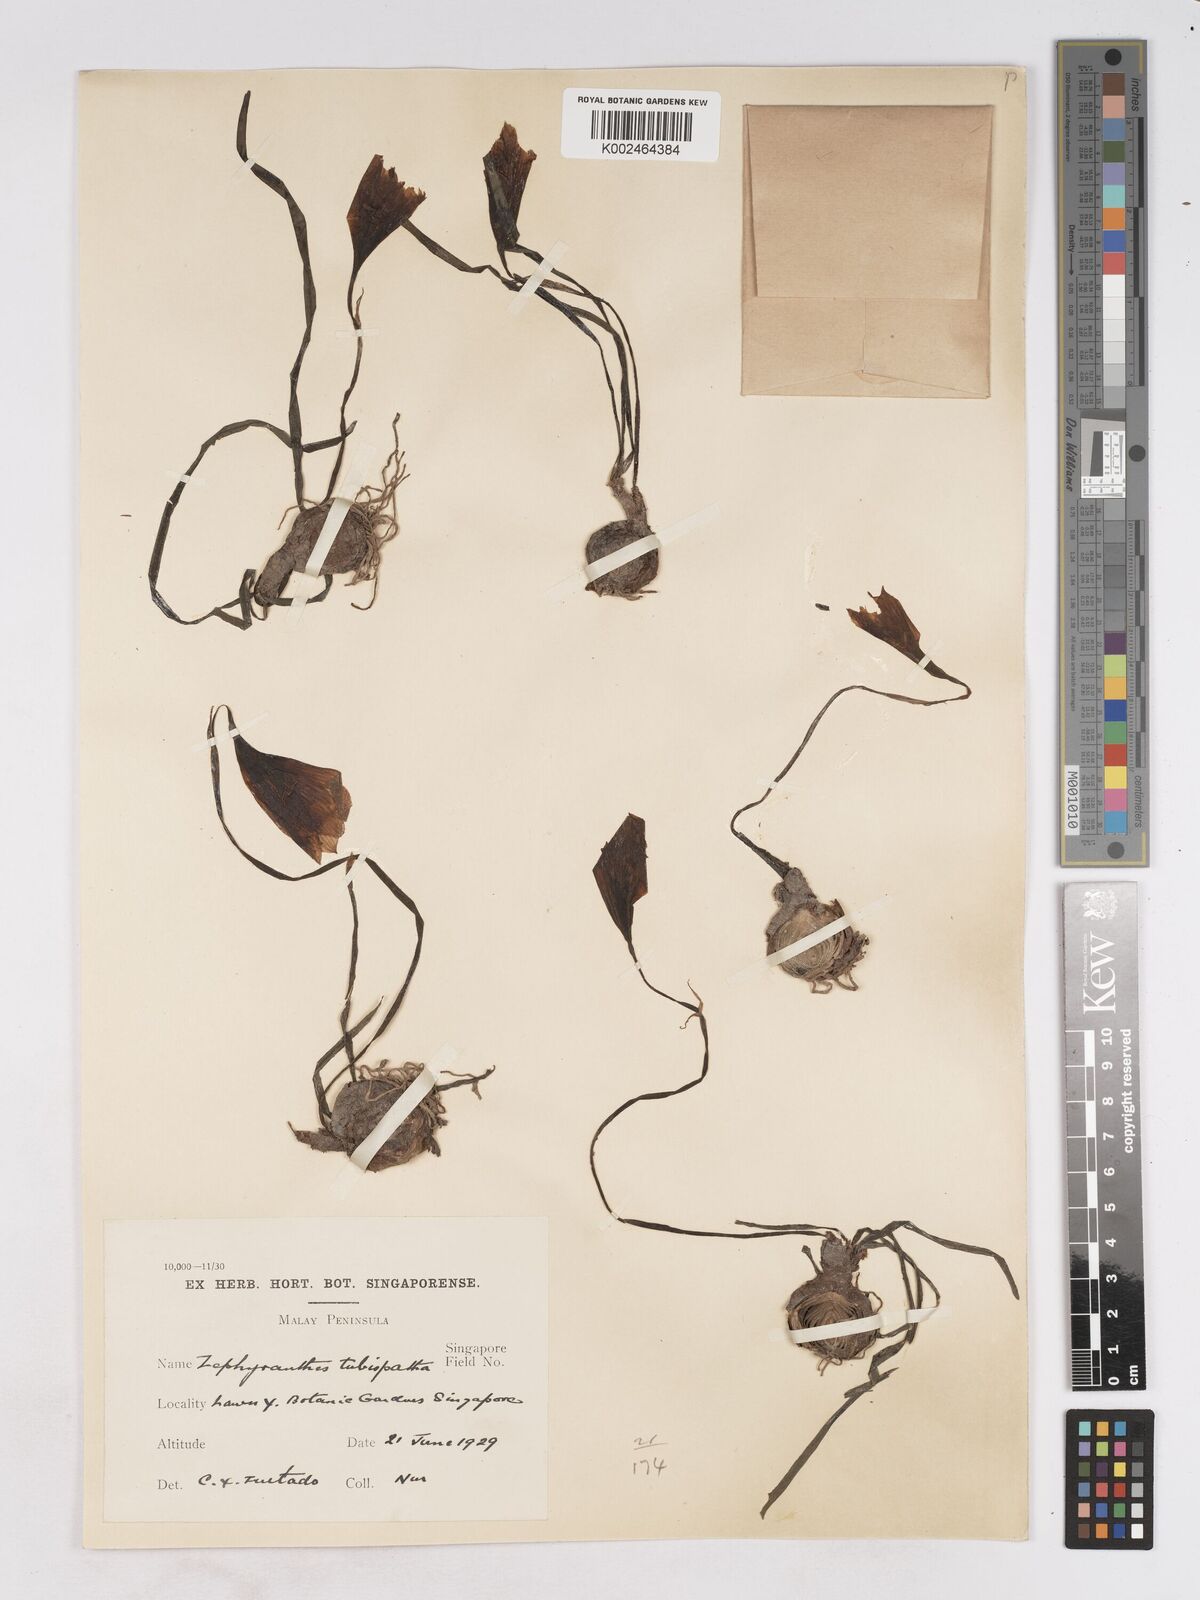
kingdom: Plantae
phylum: Tracheophyta
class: Liliopsida
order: Asparagales
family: Amaryllidaceae
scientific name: Amaryllidaceae
